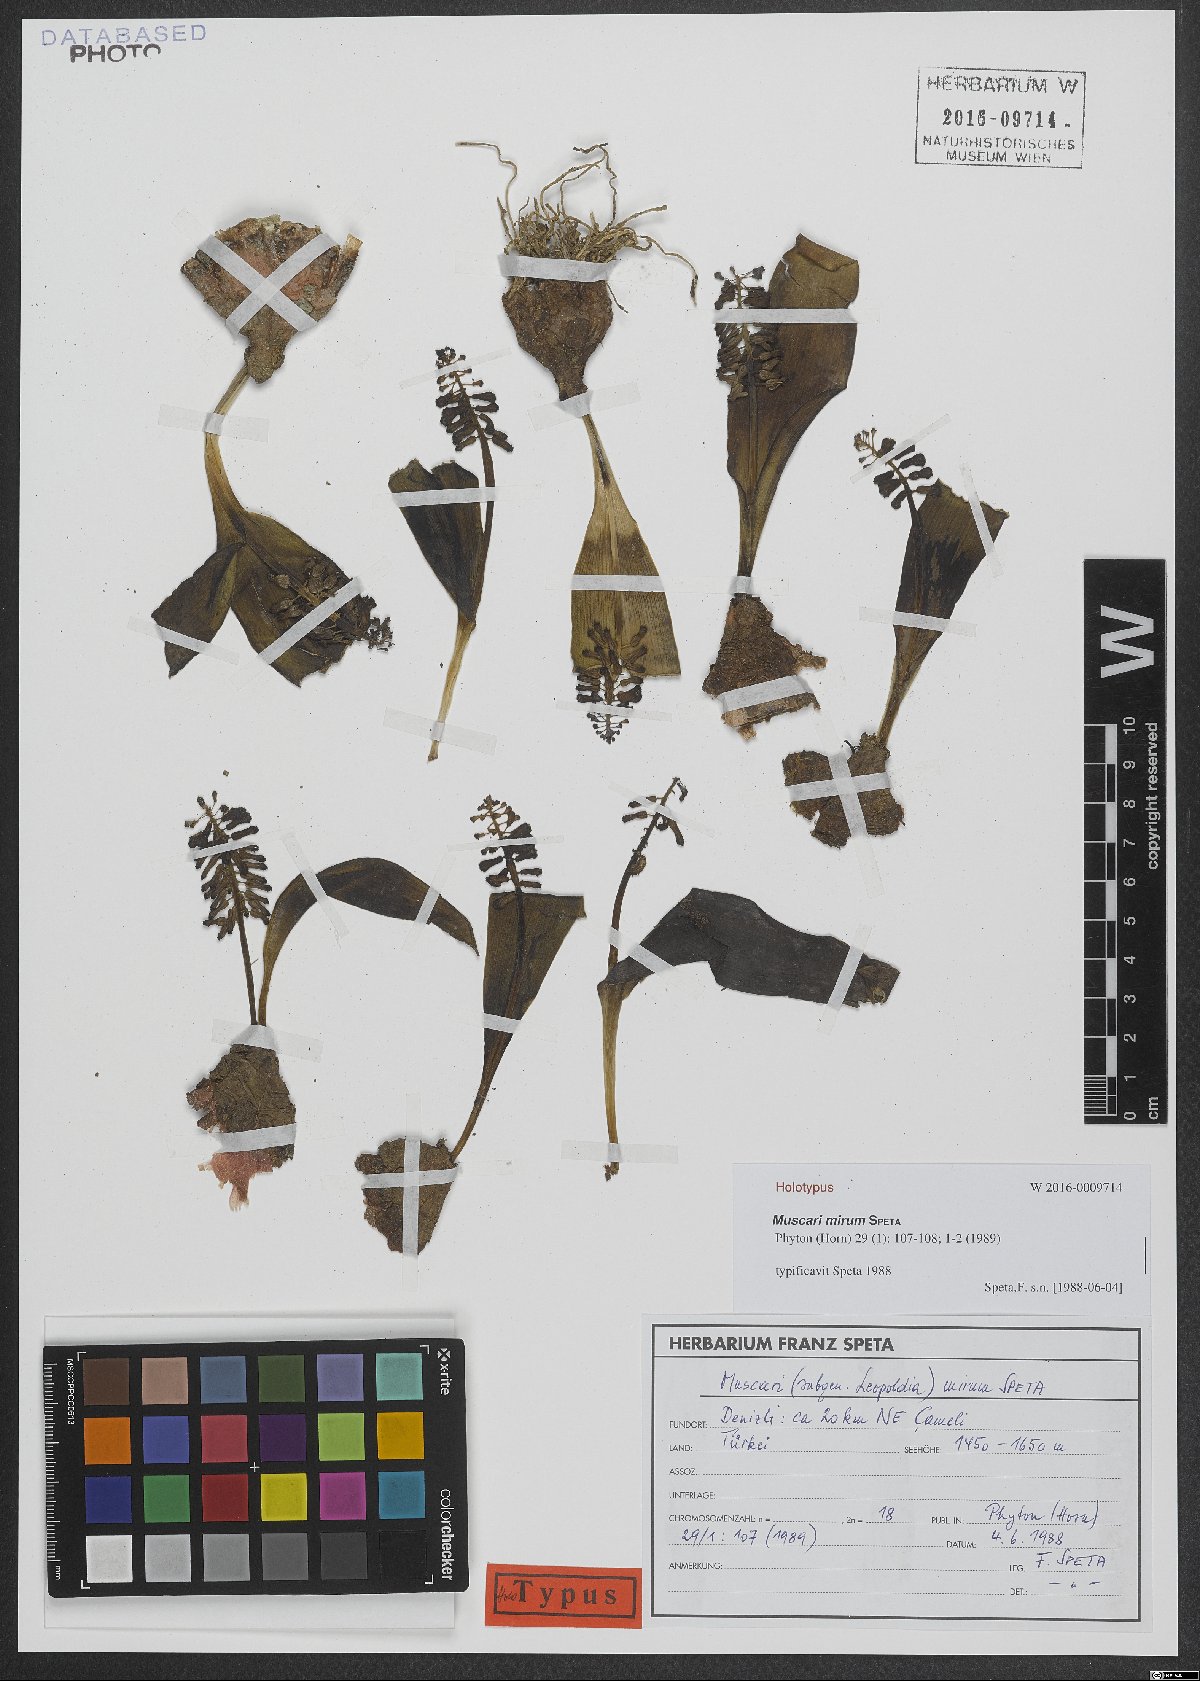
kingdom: Plantae
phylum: Tracheophyta
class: Liliopsida
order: Asparagales
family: Asparagaceae
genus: Muscari
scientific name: Muscari mirum
